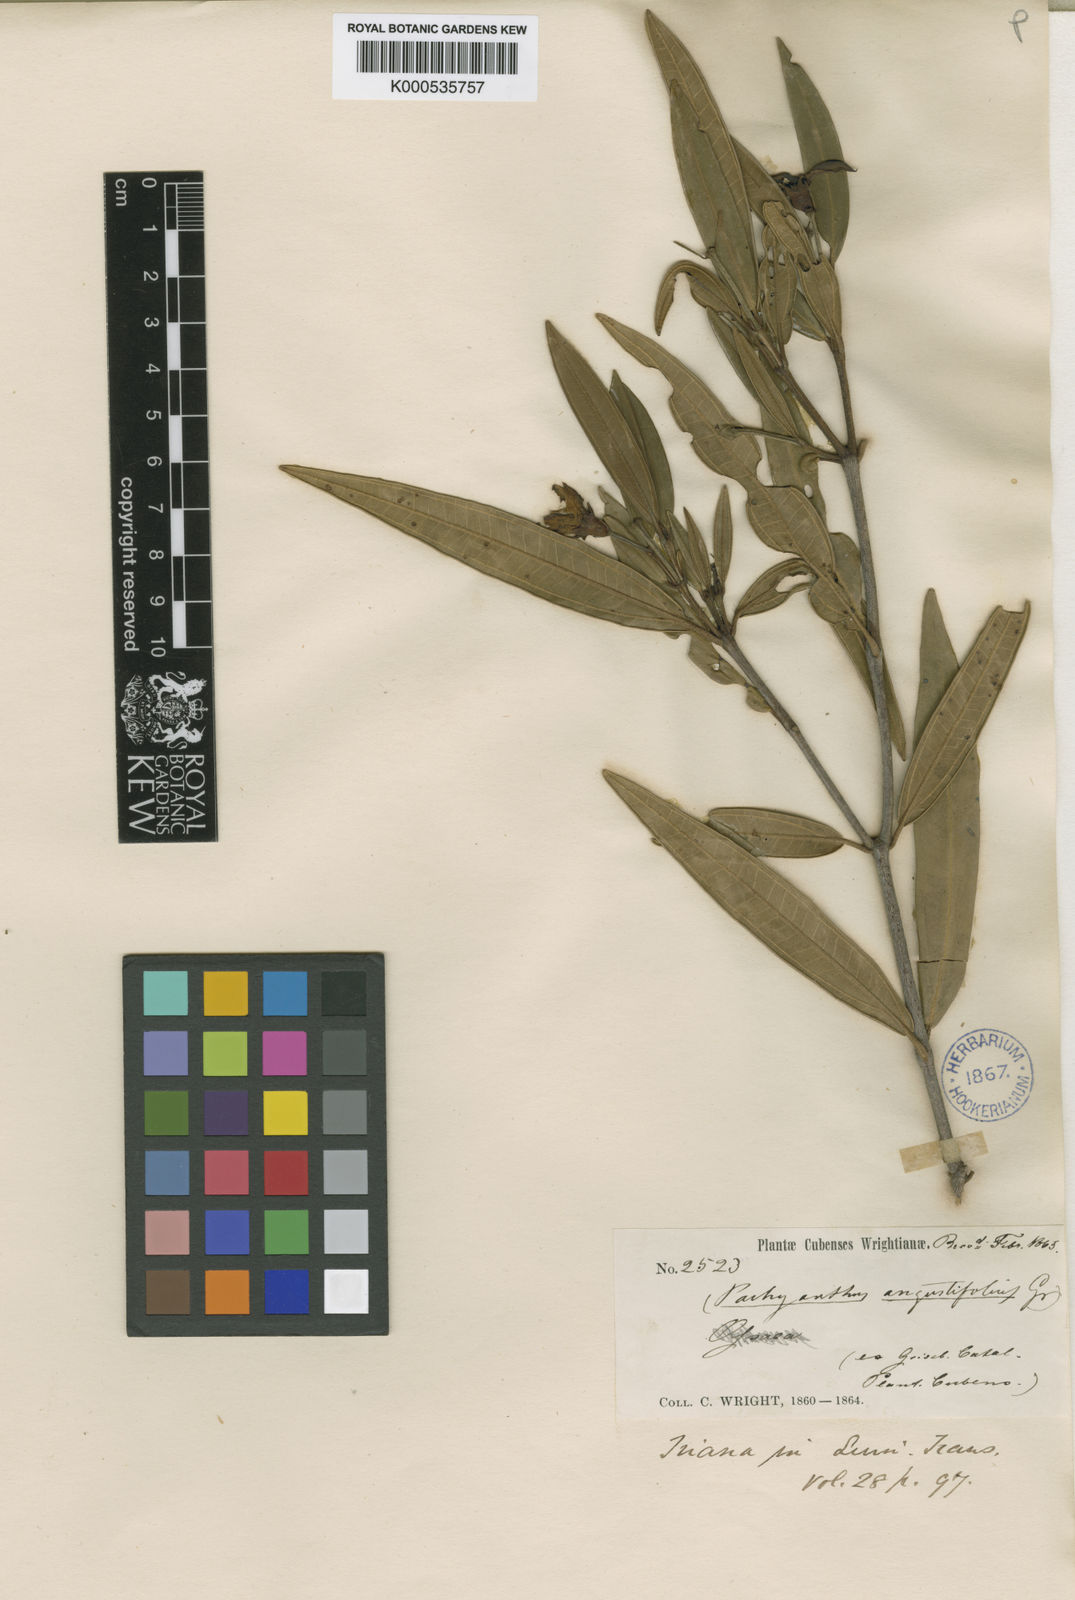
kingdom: Plantae
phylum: Tracheophyta
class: Magnoliopsida
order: Myrtales
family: Melastomataceae
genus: Miconia
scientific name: Miconia secundoangustifolia
